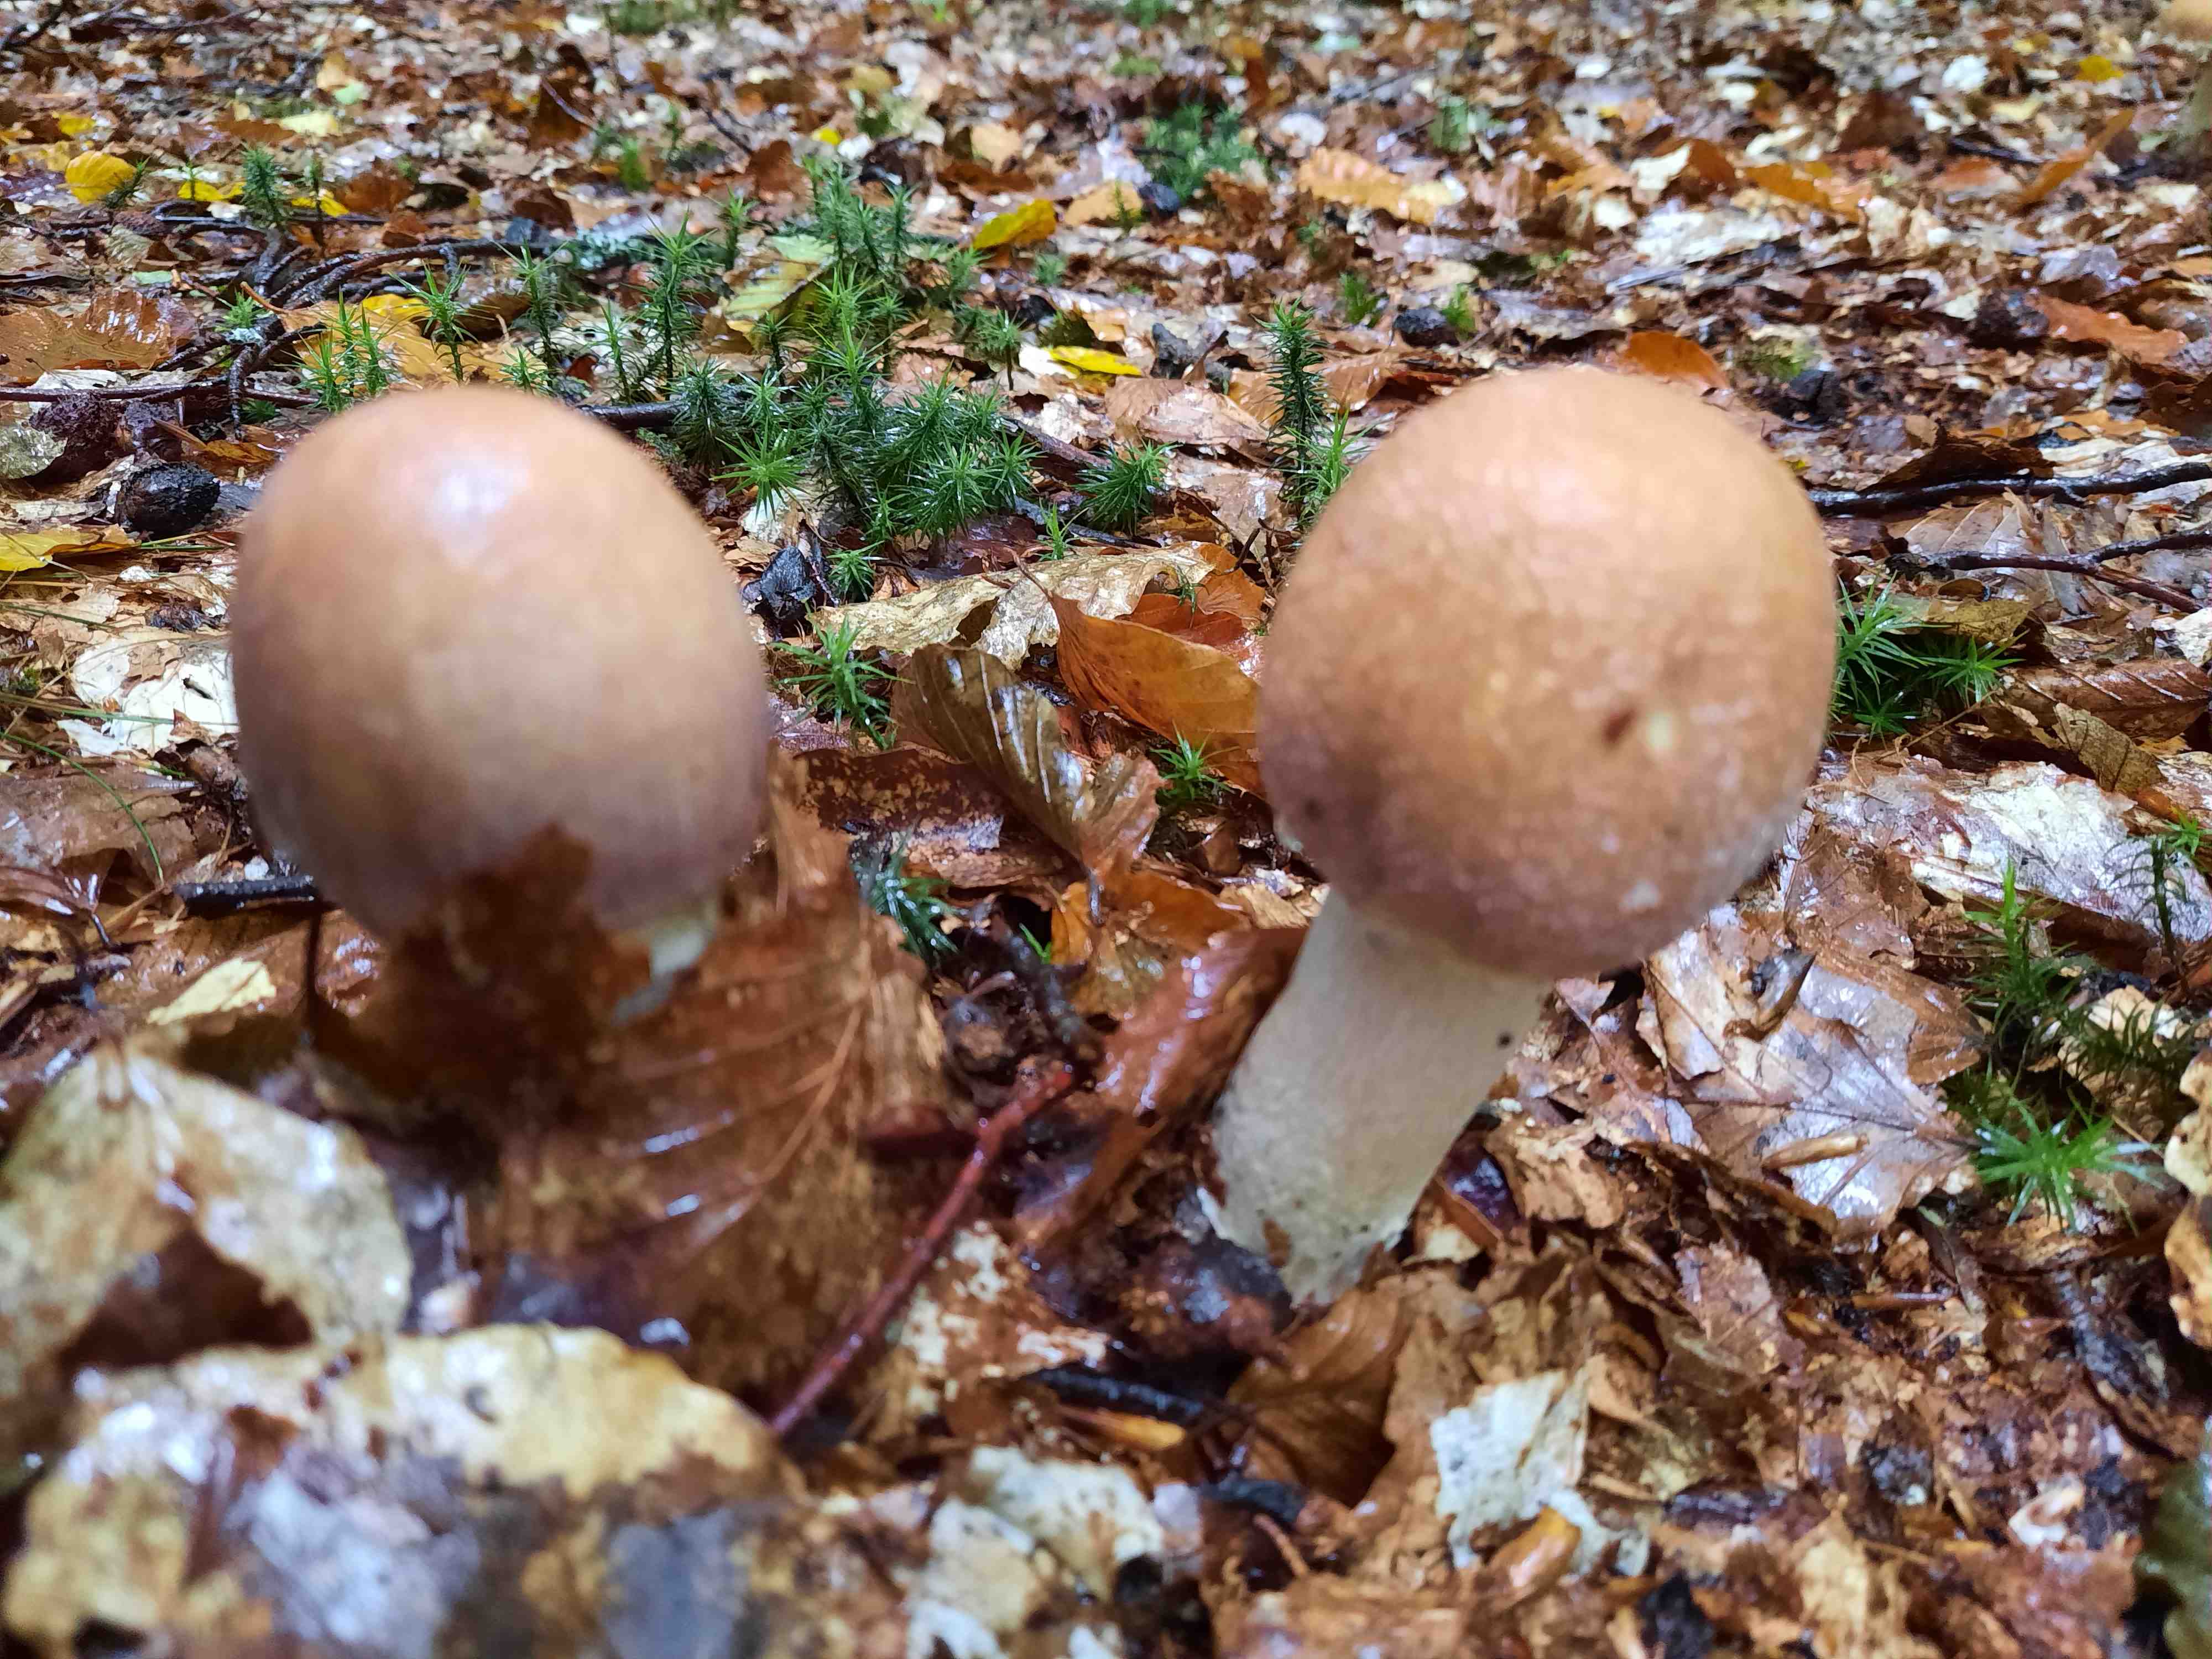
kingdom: Fungi
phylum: Basidiomycota
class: Agaricomycetes
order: Agaricales
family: Cortinariaceae
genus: Cortinarius
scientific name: Cortinarius caperatus
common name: klidhat
